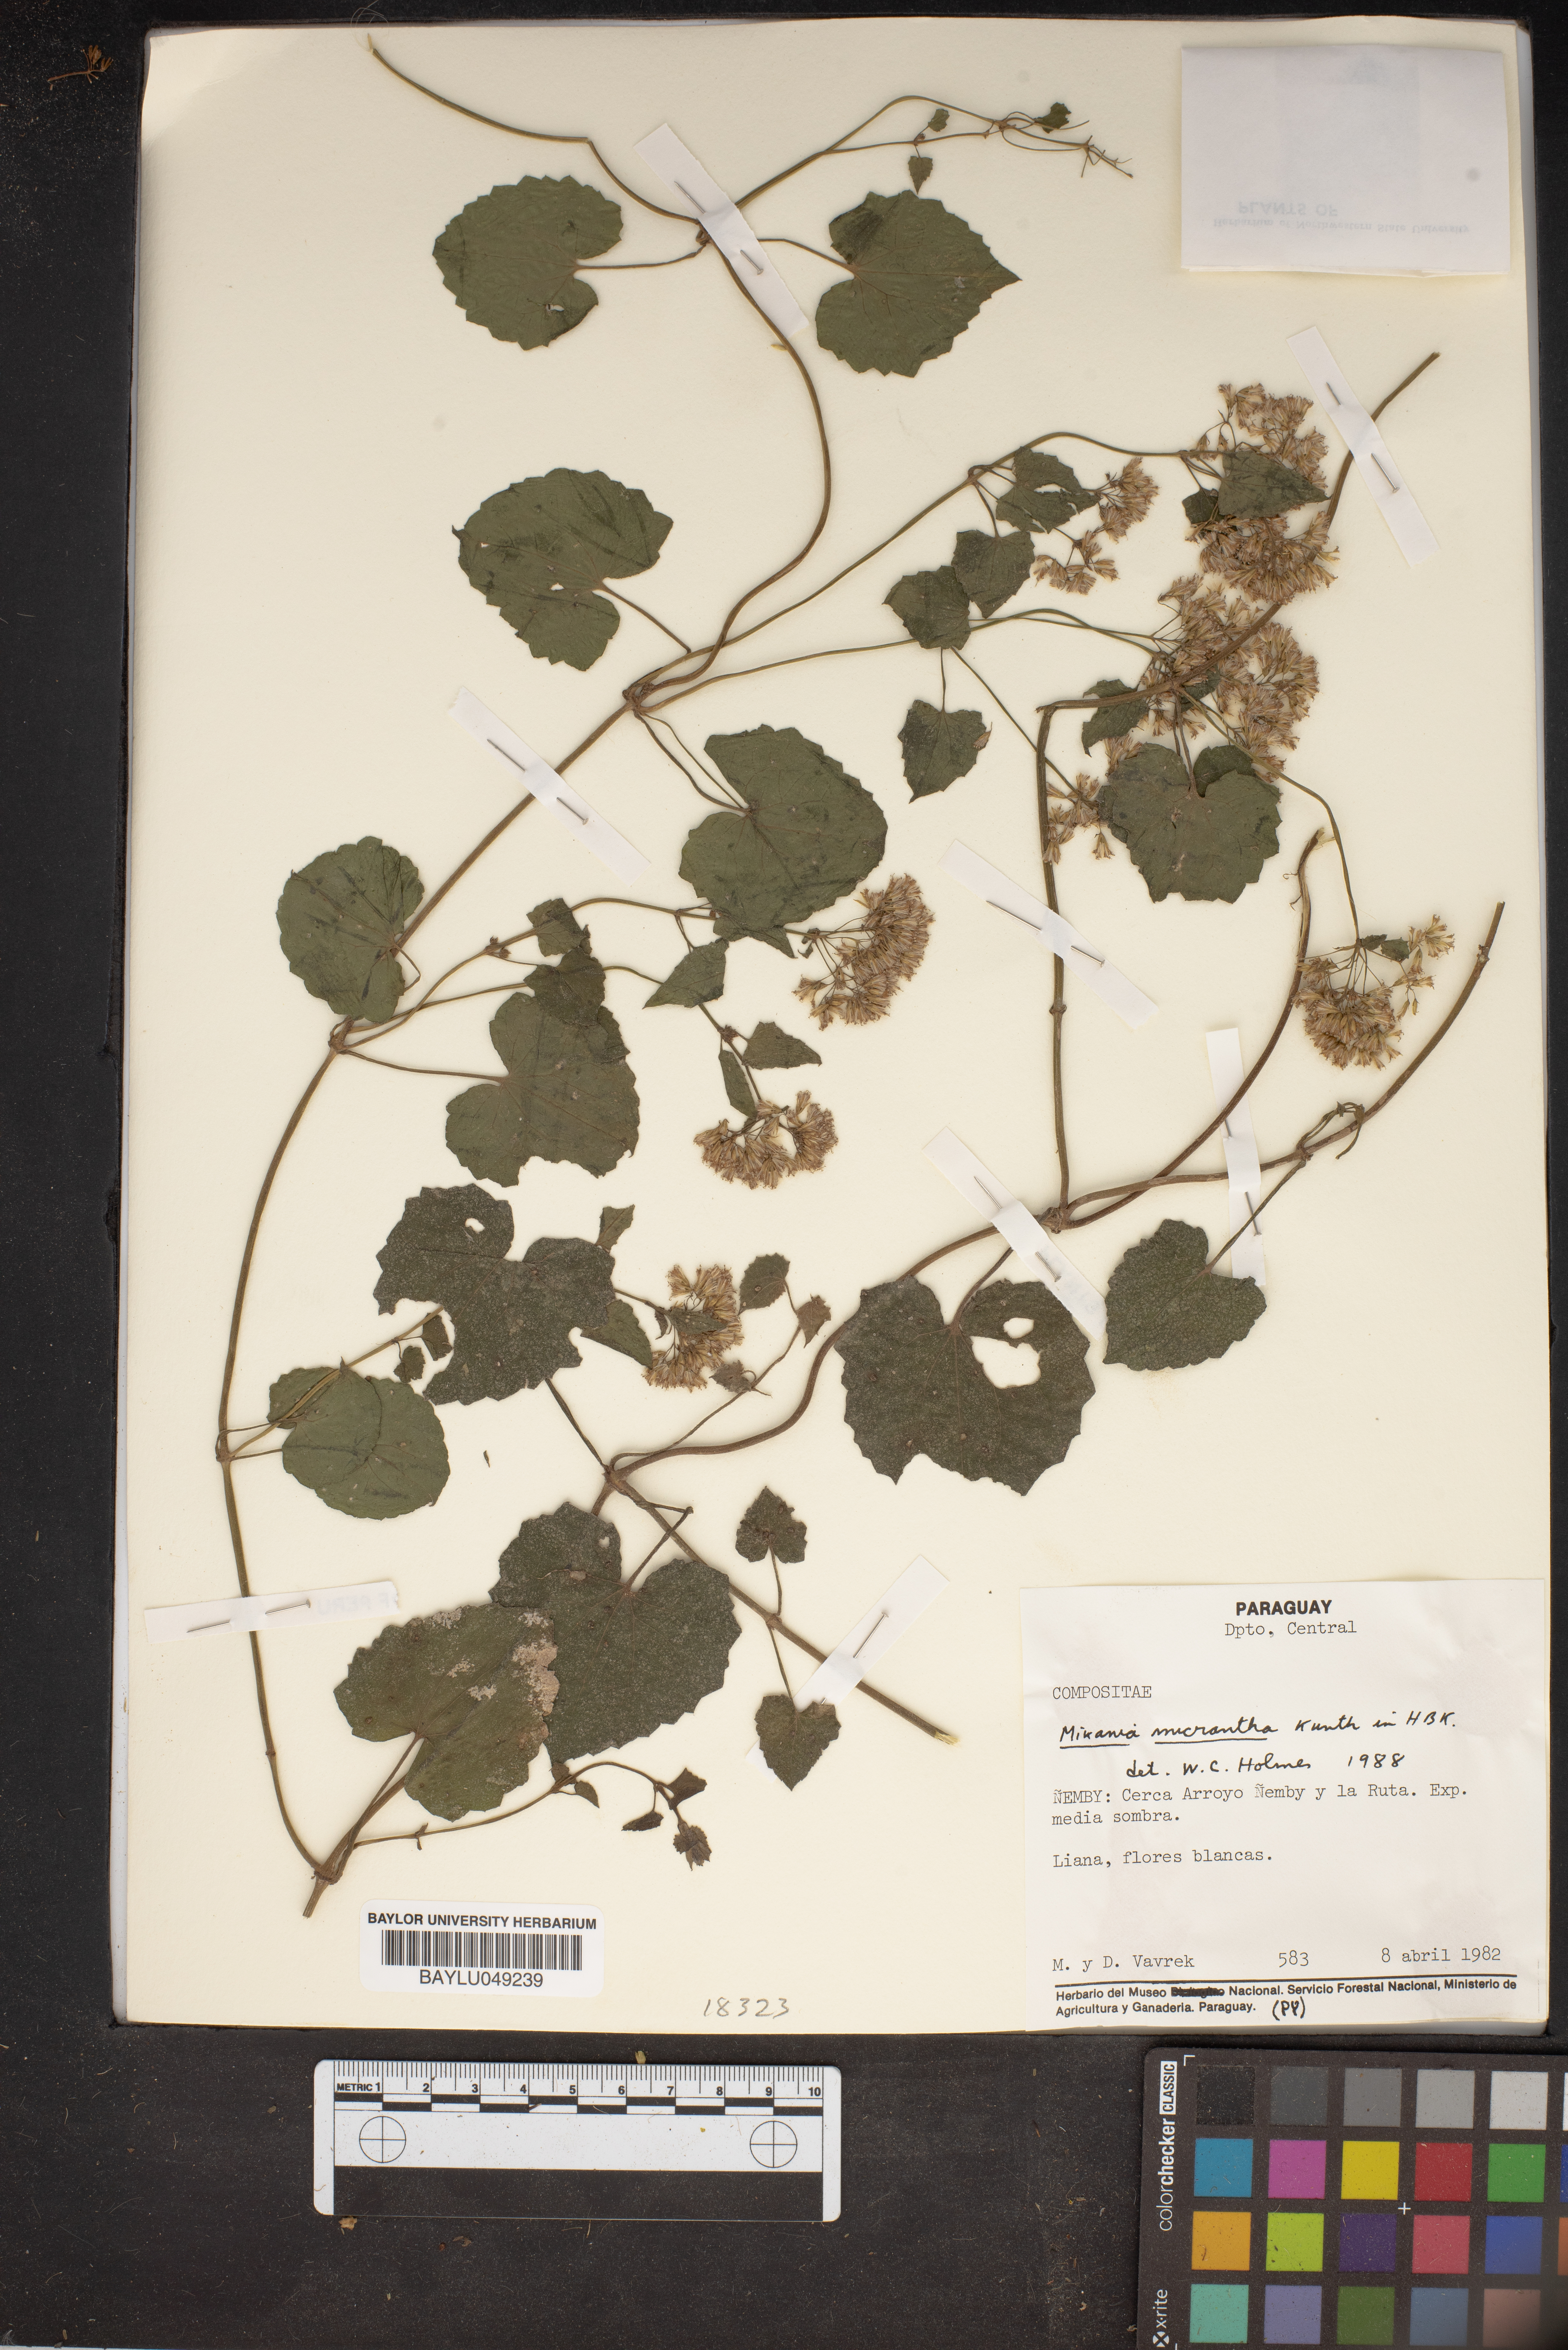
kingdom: Plantae
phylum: Tracheophyta
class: Magnoliopsida
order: Asterales
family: Asteraceae
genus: Mikania
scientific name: Mikania micrantha
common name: Mile-a-minute
